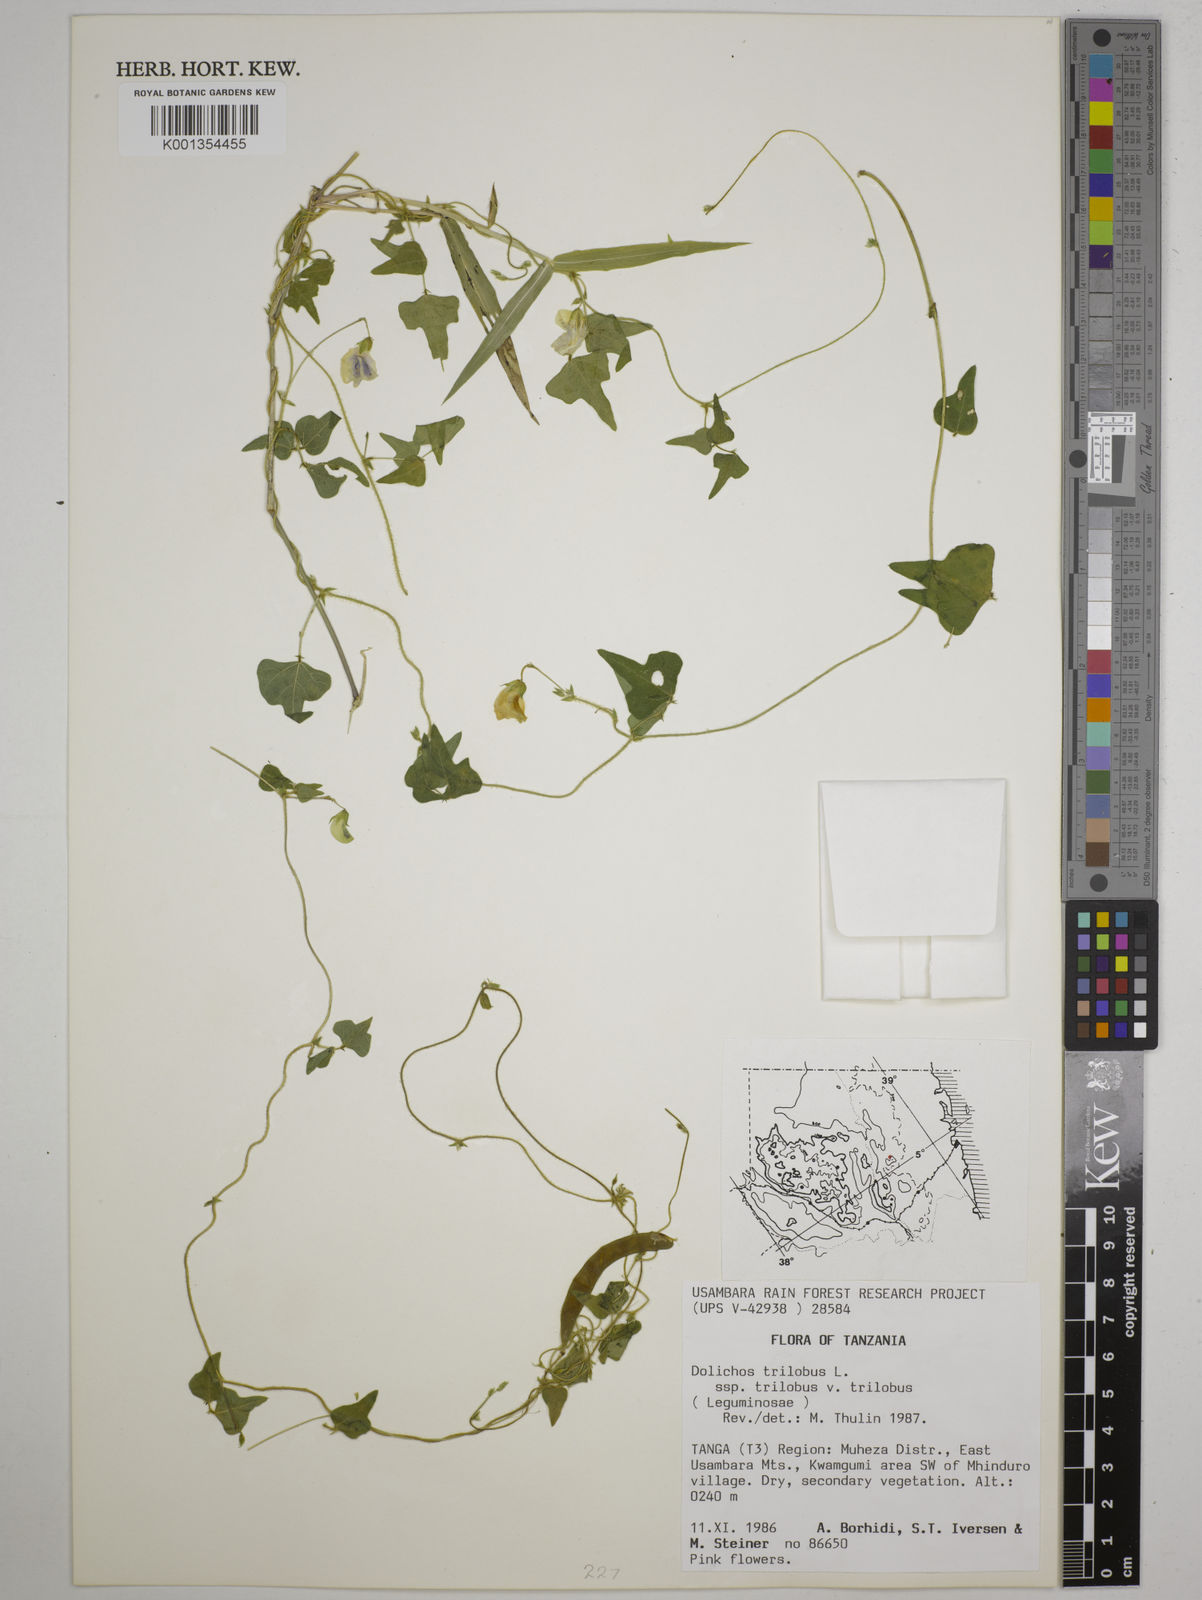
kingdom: Plantae
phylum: Tracheophyta
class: Magnoliopsida
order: Fabales
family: Fabaceae
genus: Dolichos
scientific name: Dolichos
